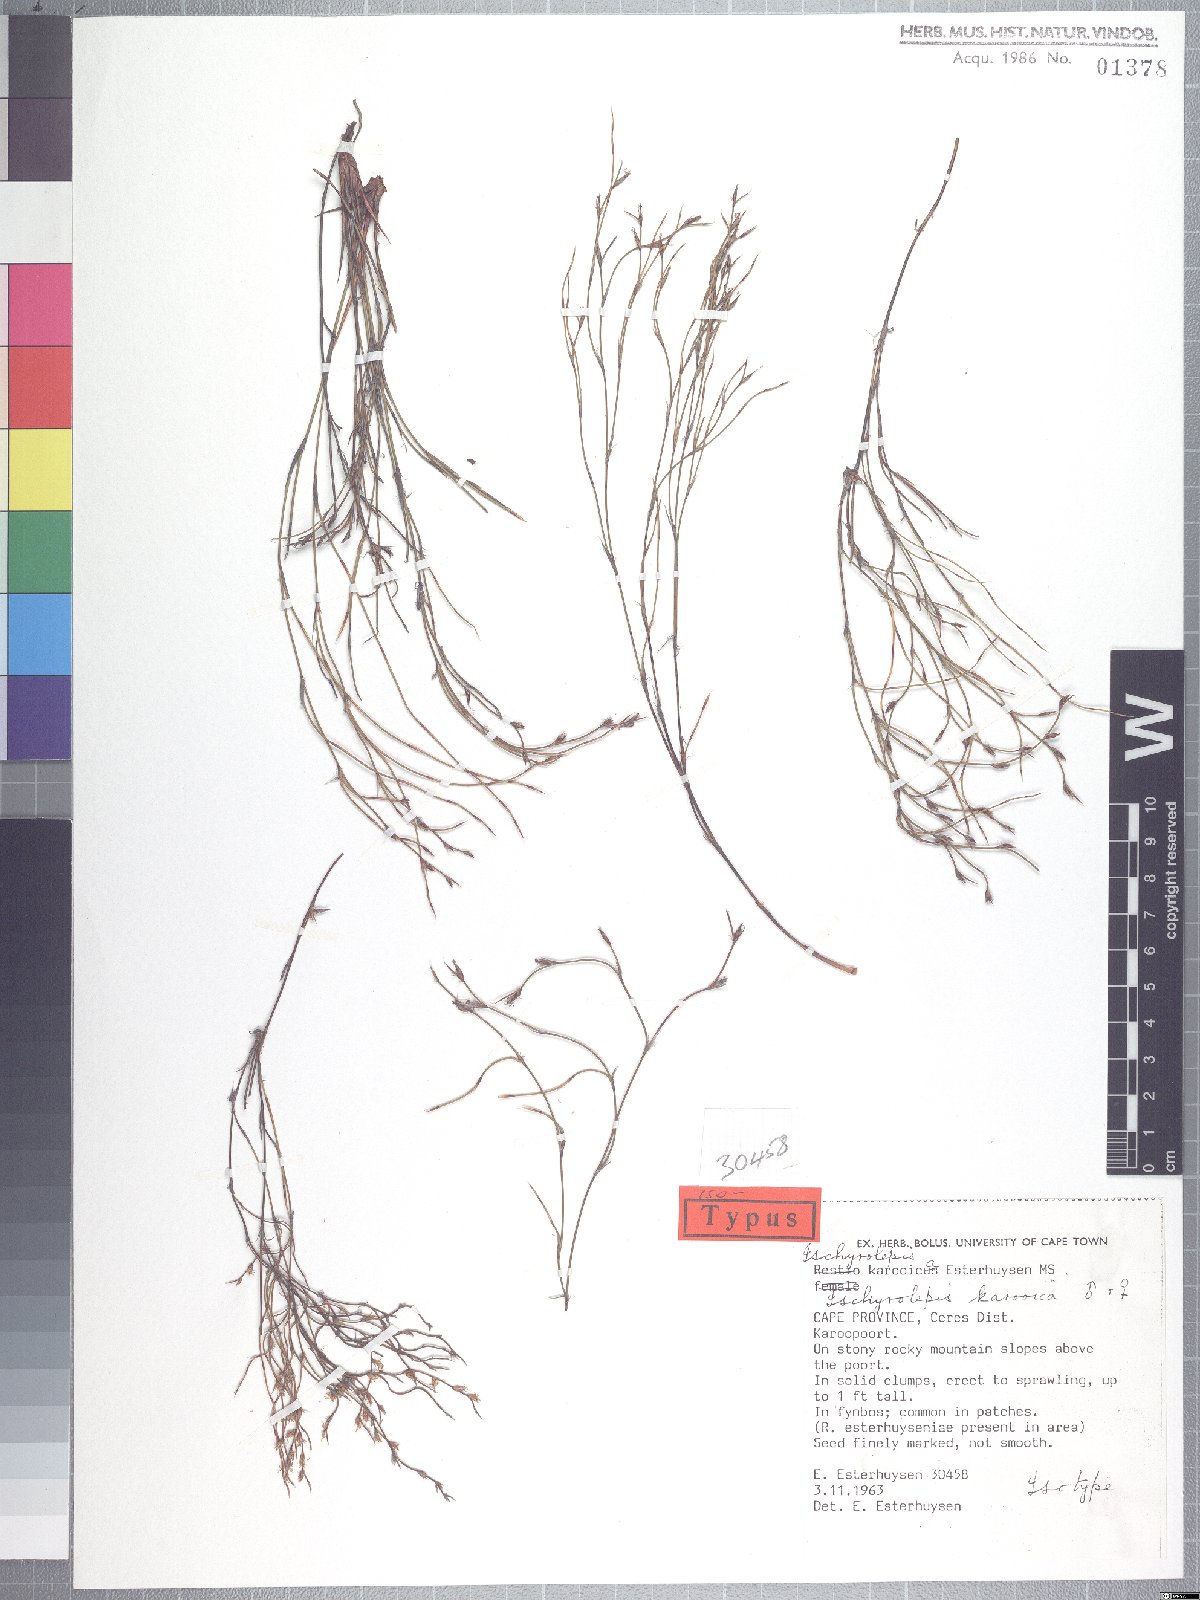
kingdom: Plantae
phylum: Tracheophyta
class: Liliopsida
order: Poales
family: Restionaceae
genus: Restio
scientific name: Restio karooicus
